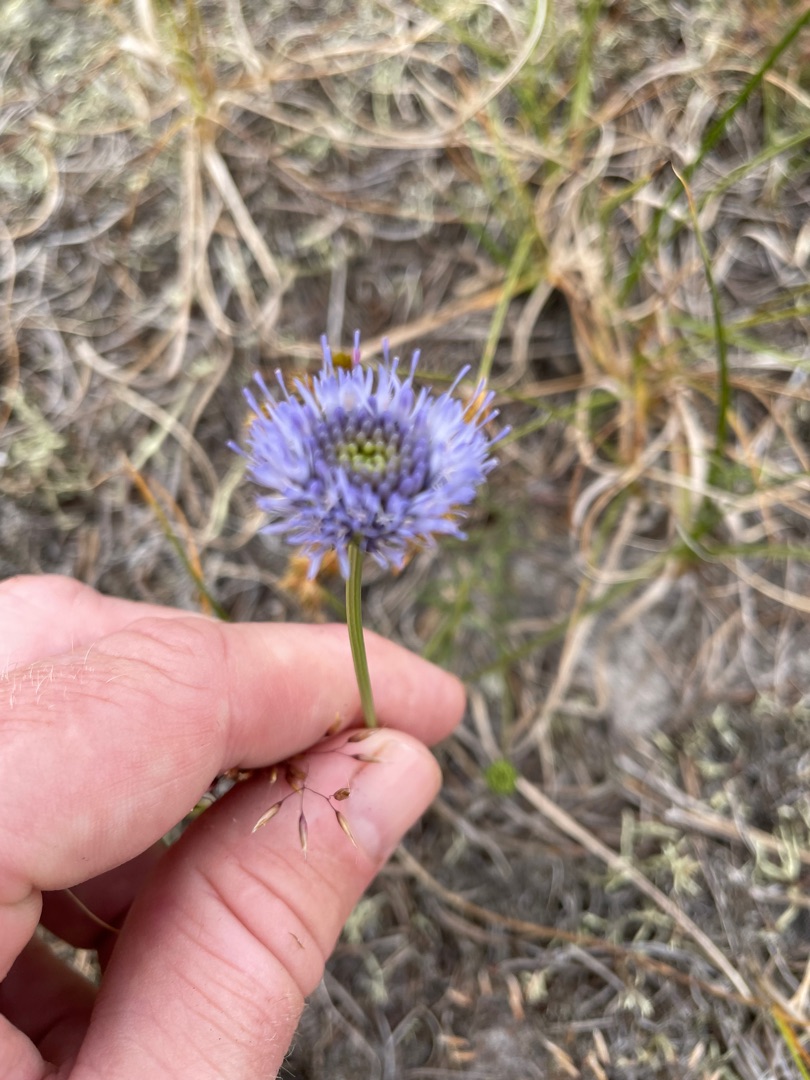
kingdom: Plantae
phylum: Tracheophyta
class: Magnoliopsida
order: Asterales
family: Campanulaceae
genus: Jasione
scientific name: Jasione montana
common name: Blåmunke
